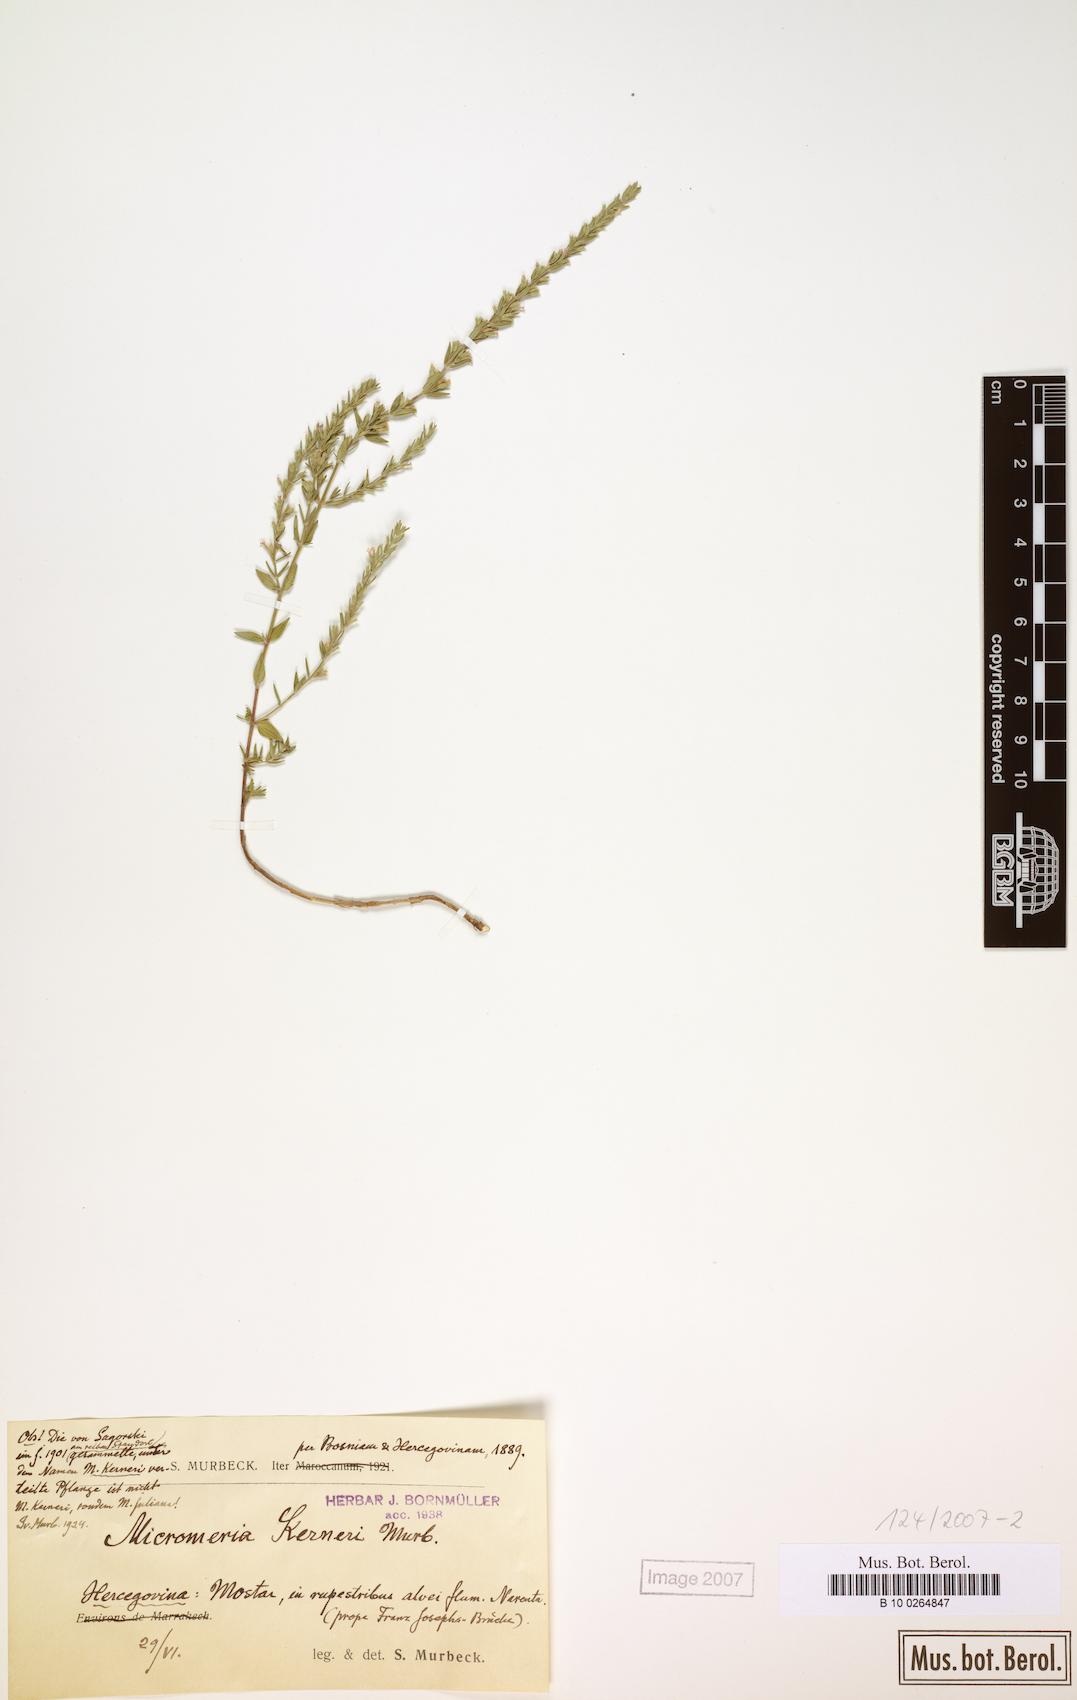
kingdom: Plantae
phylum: Tracheophyta
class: Magnoliopsida
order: Lamiales
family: Lamiaceae
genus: Micromeria
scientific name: Micromeria kerneri
